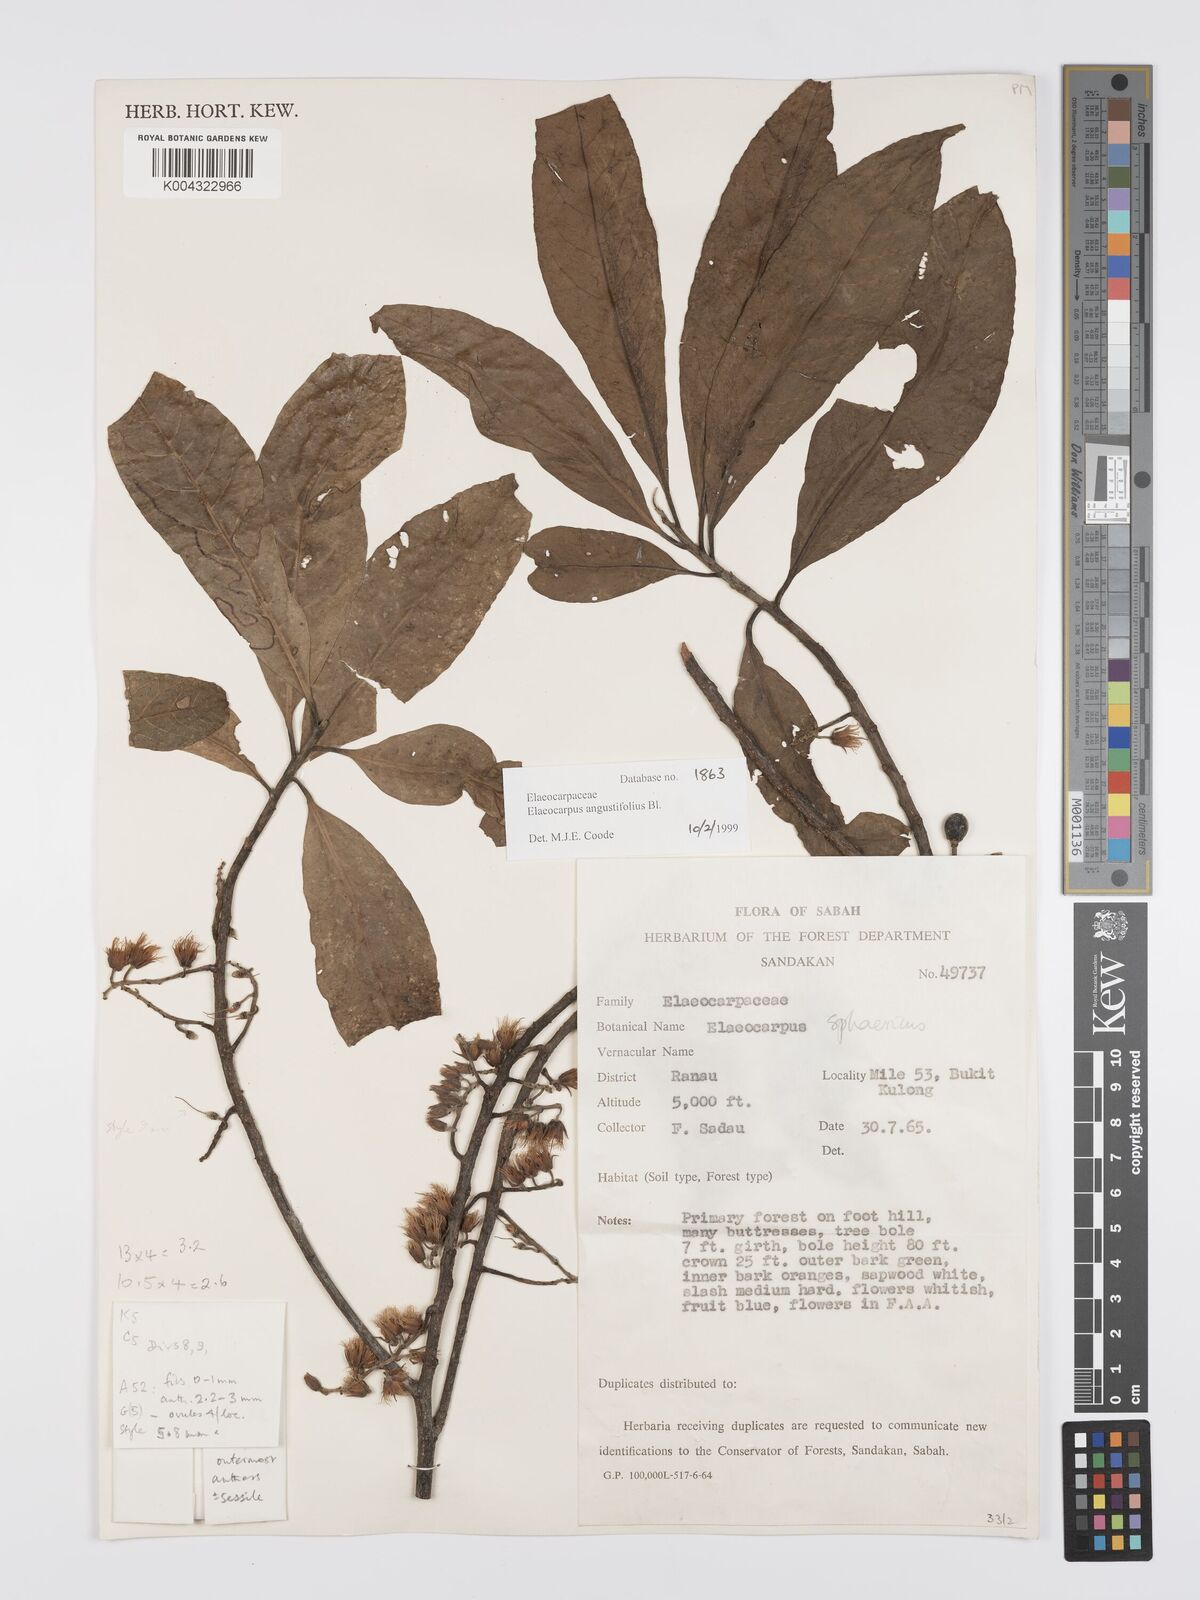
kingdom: Plantae
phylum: Tracheophyta
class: Magnoliopsida
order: Oxalidales
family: Elaeocarpaceae
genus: Elaeocarpus
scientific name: Elaeocarpus
